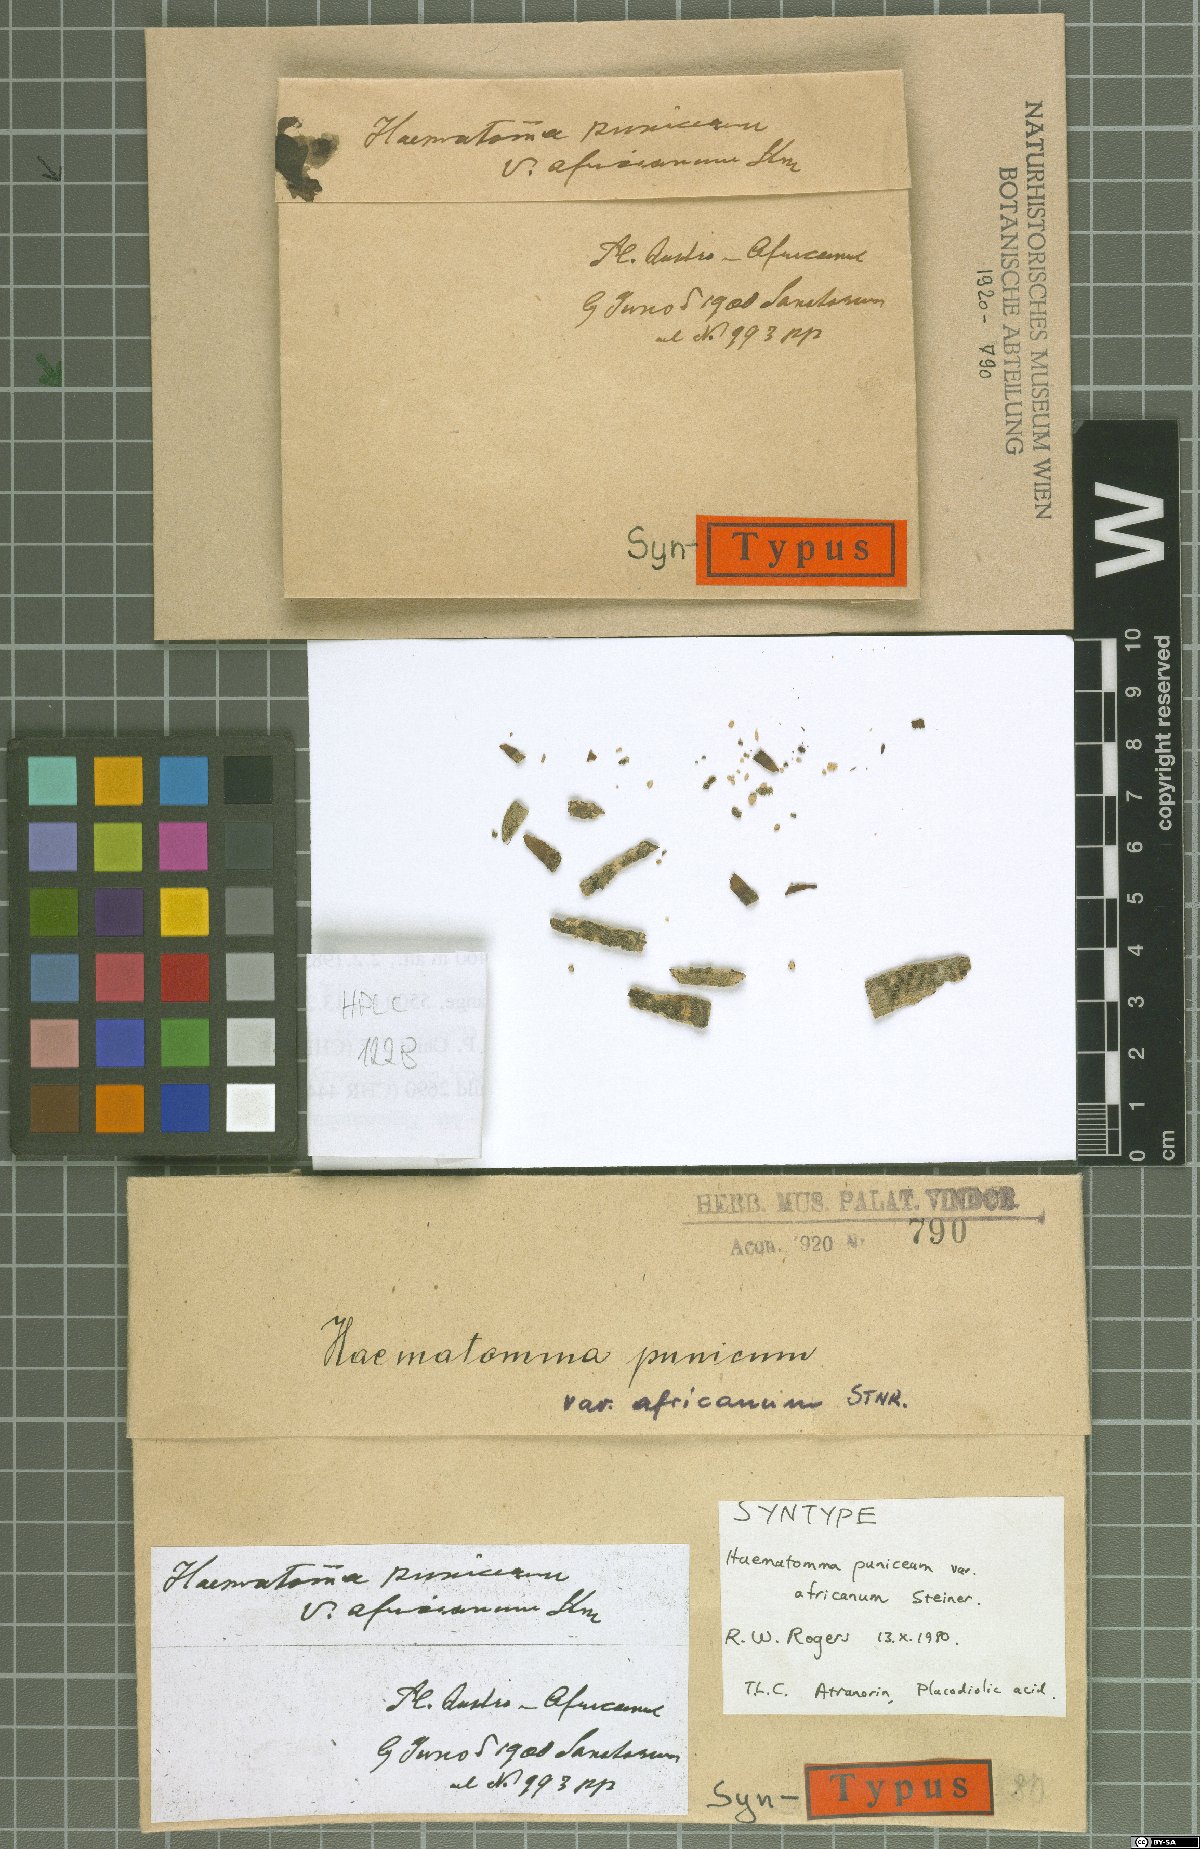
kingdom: Fungi
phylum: Ascomycota
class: Lecanoromycetes
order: Lecanorales
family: Haematommataceae
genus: Haematomma
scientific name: Haematomma africanum
